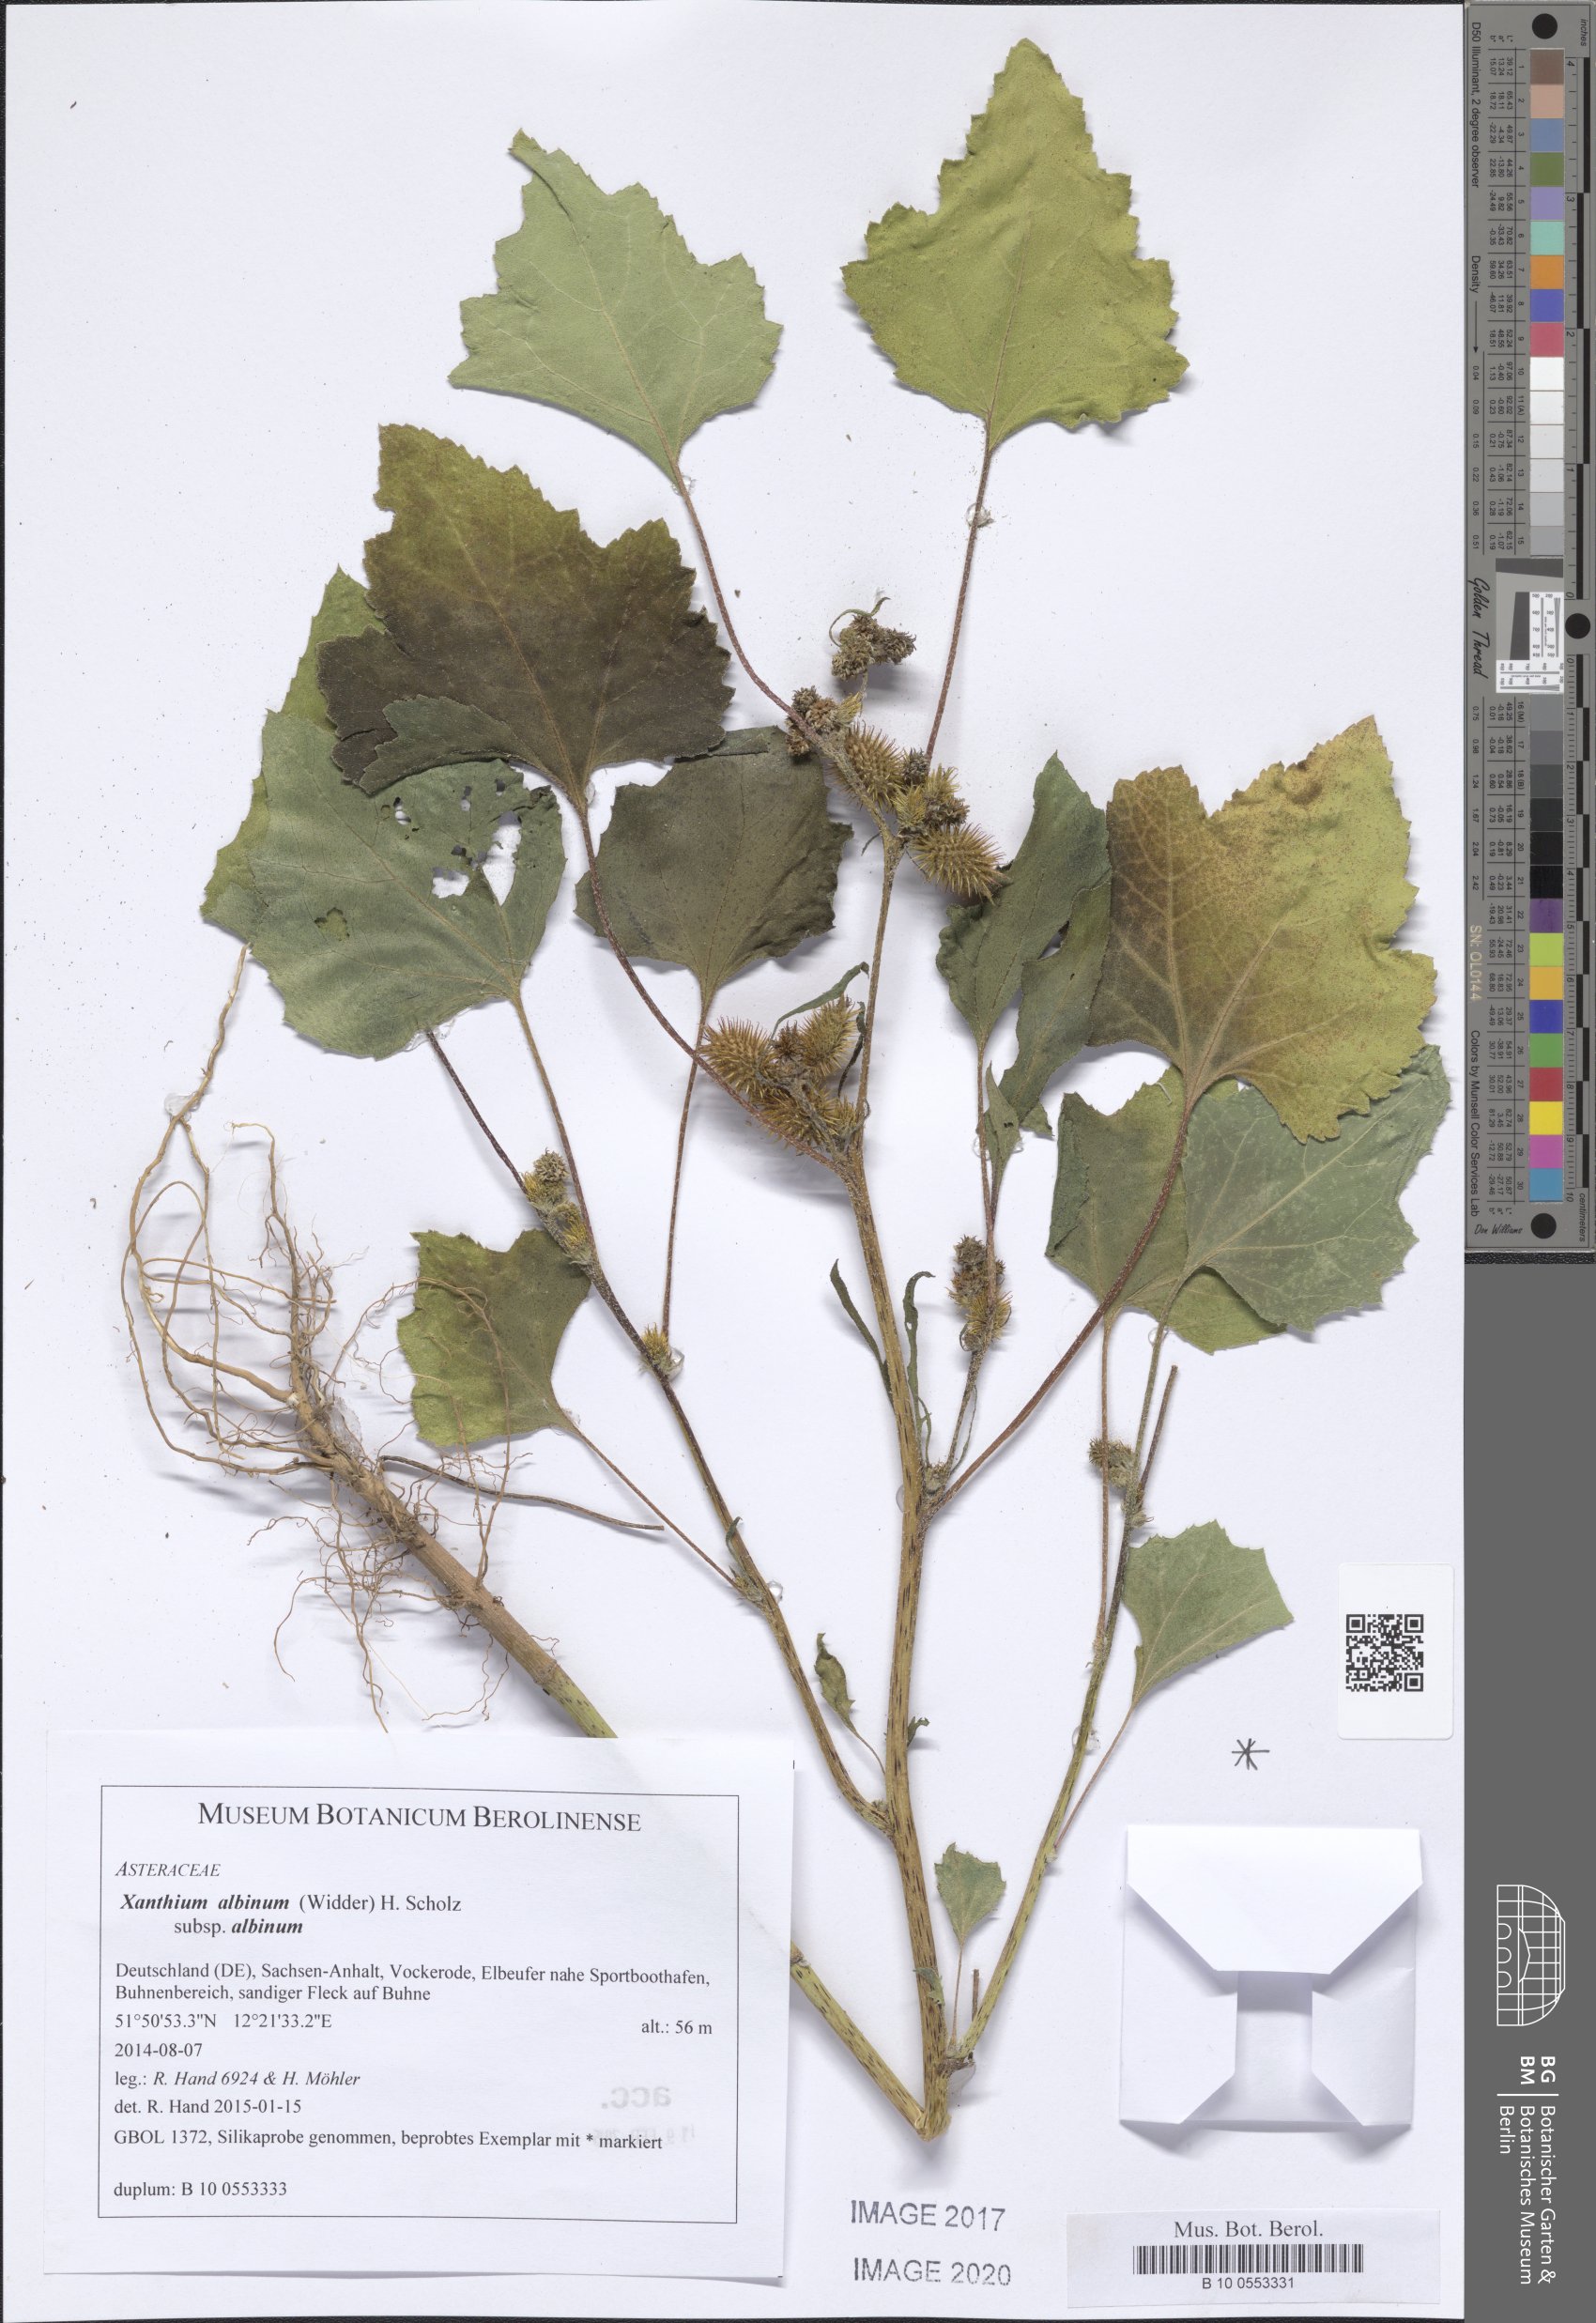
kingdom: Plantae
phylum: Tracheophyta
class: Magnoliopsida
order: Asterales
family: Asteraceae
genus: Xanthium
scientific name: Xanthium orientale
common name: Californian burr
